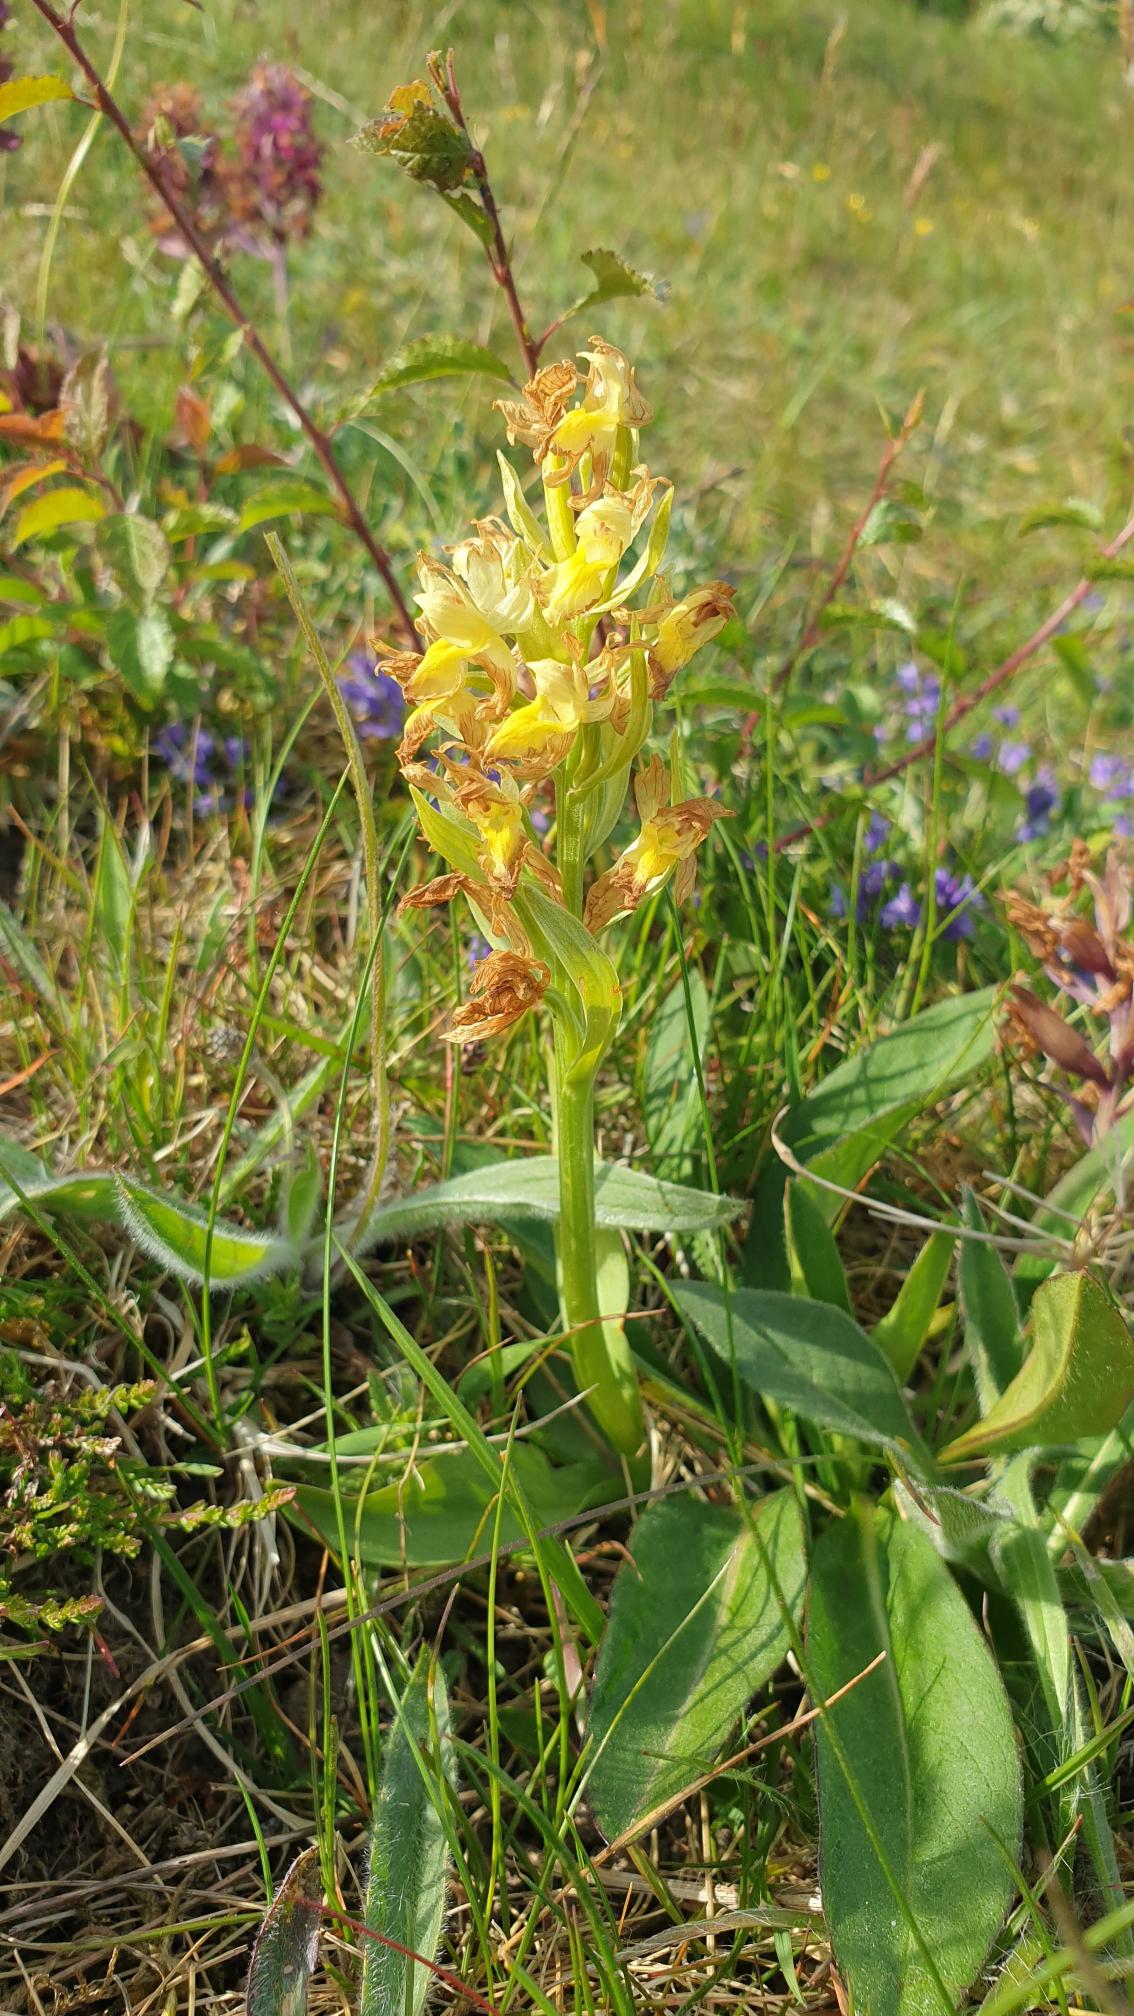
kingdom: Plantae
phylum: Tracheophyta
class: Liliopsida
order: Asparagales
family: Orchidaceae
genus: Dactylorhiza
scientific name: Dactylorhiza sambucina
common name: Hylde-gøgeurt
